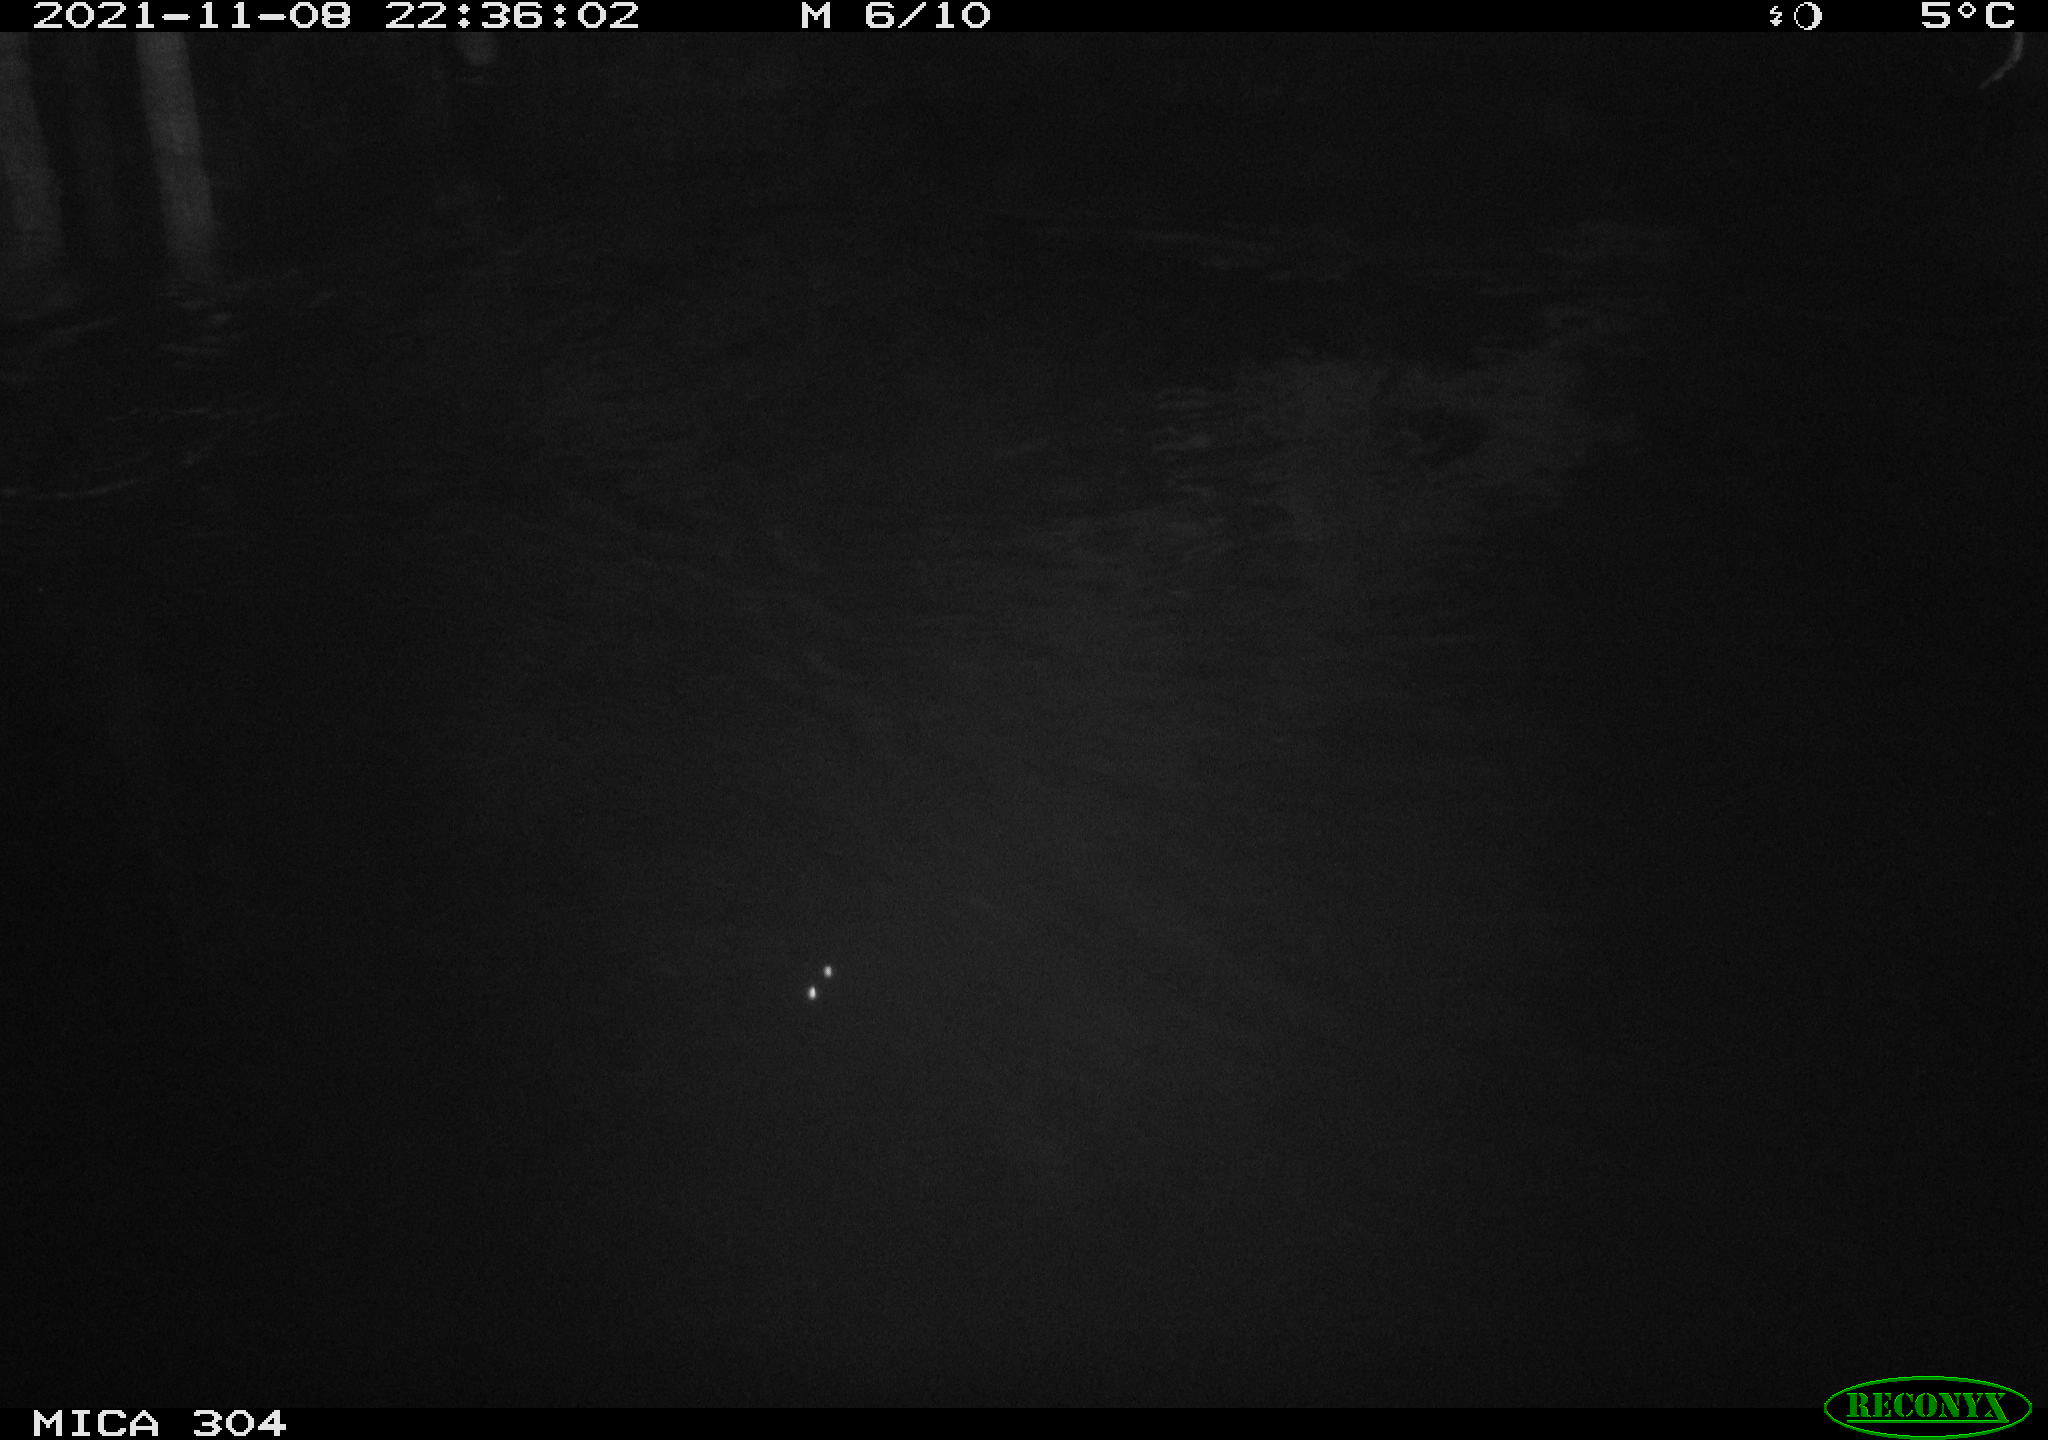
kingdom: Animalia
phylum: Chordata
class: Mammalia
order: Rodentia
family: Muridae
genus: Rattus
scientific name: Rattus norvegicus
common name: Brown rat
